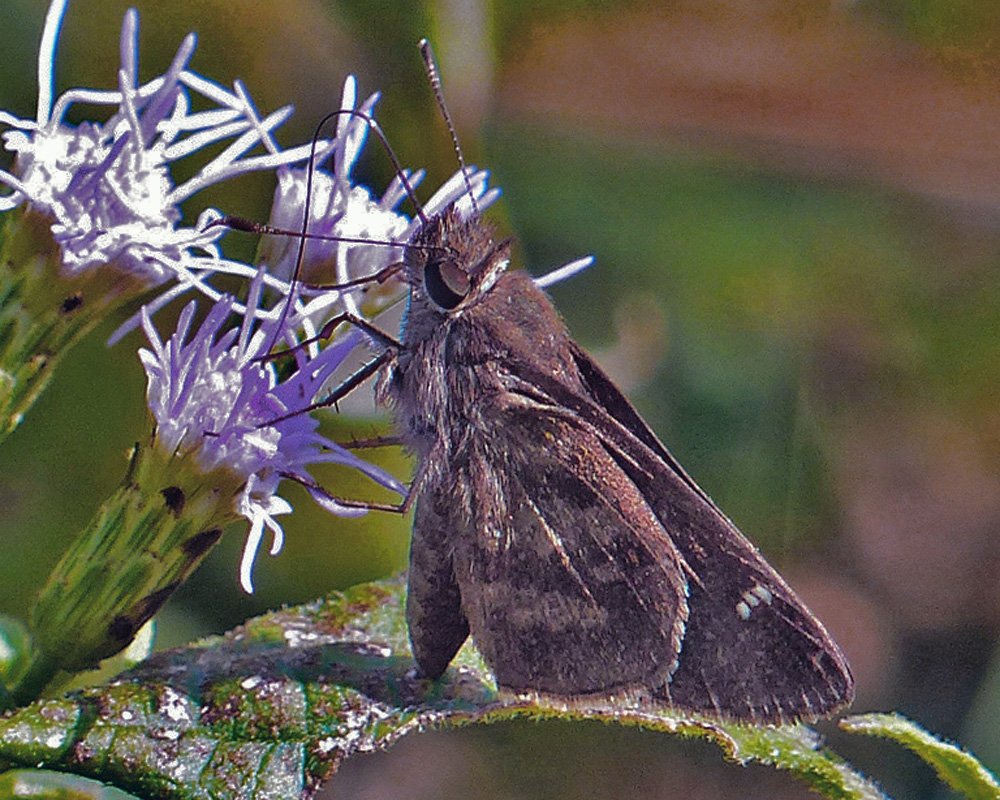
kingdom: Animalia
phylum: Arthropoda
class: Insecta
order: Lepidoptera
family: Hesperiidae
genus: Cymaenes
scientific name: Cymaenes odilia
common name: Fawn-spotted Skipper
